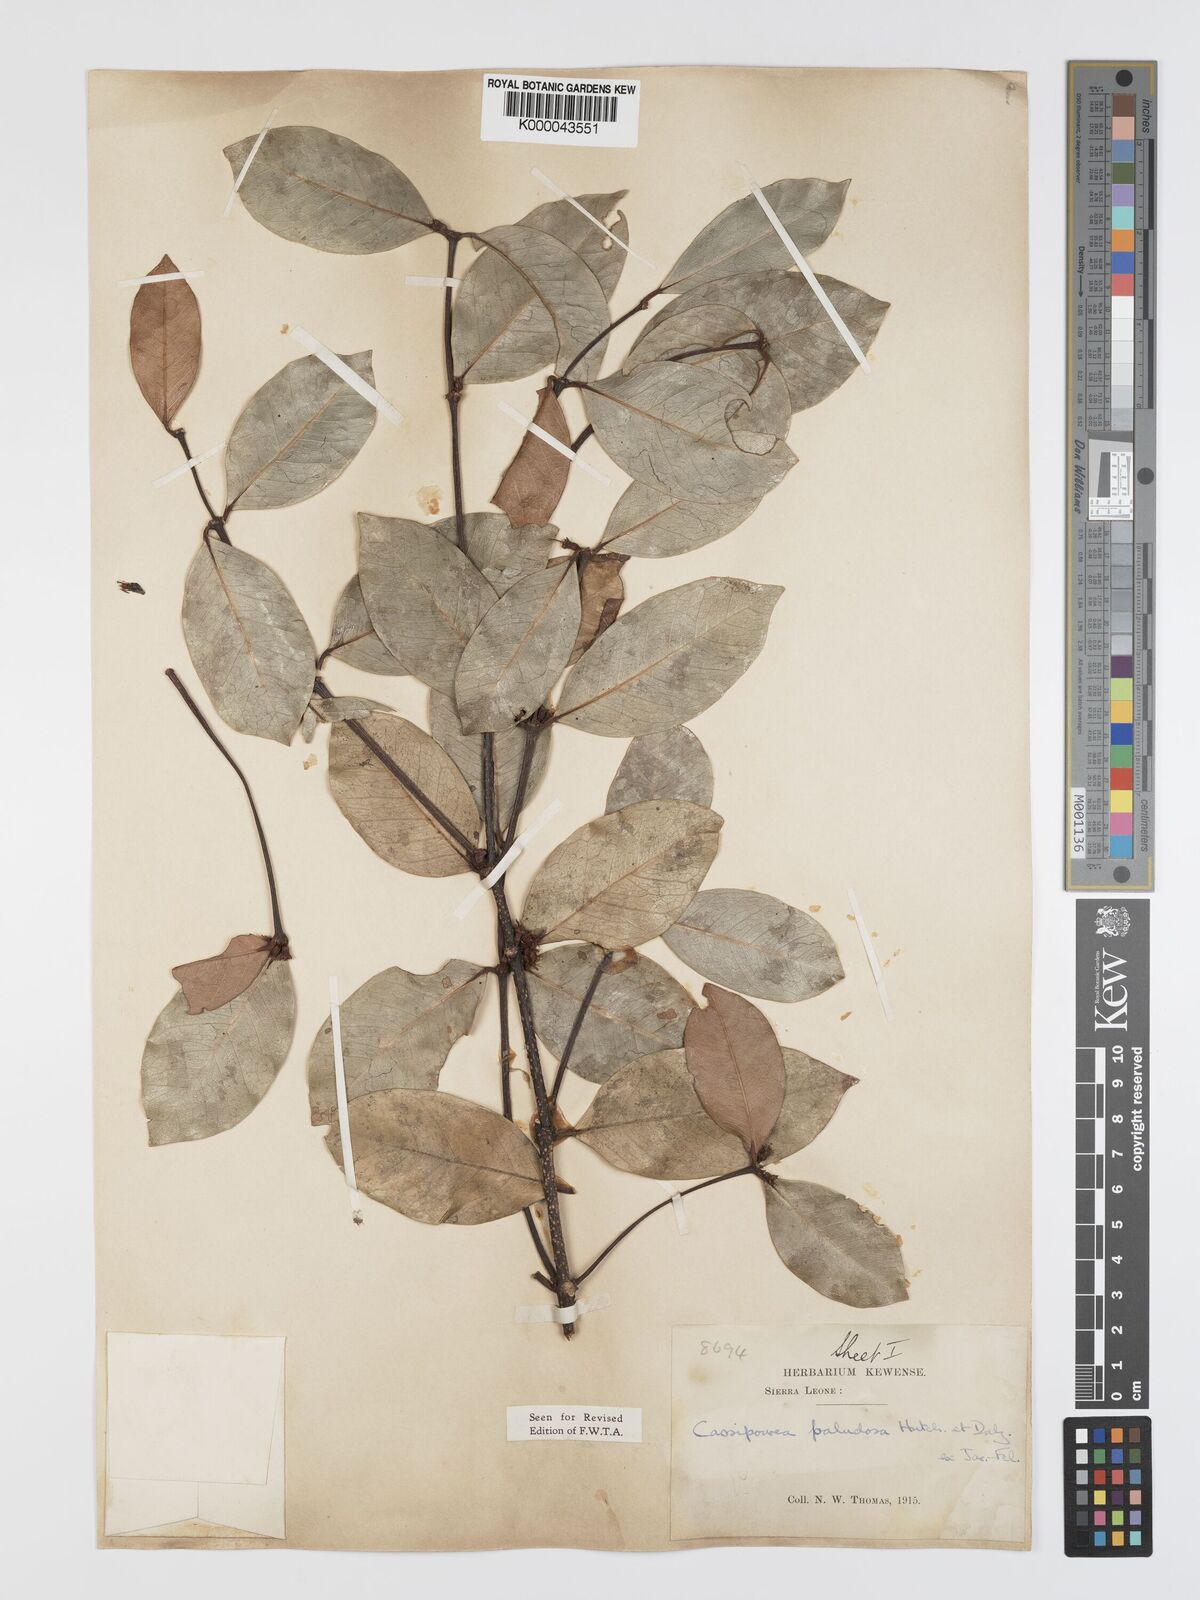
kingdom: Plantae
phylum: Tracheophyta
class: Magnoliopsida
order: Malpighiales
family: Rhizophoraceae
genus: Cassipourea
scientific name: Cassipourea
